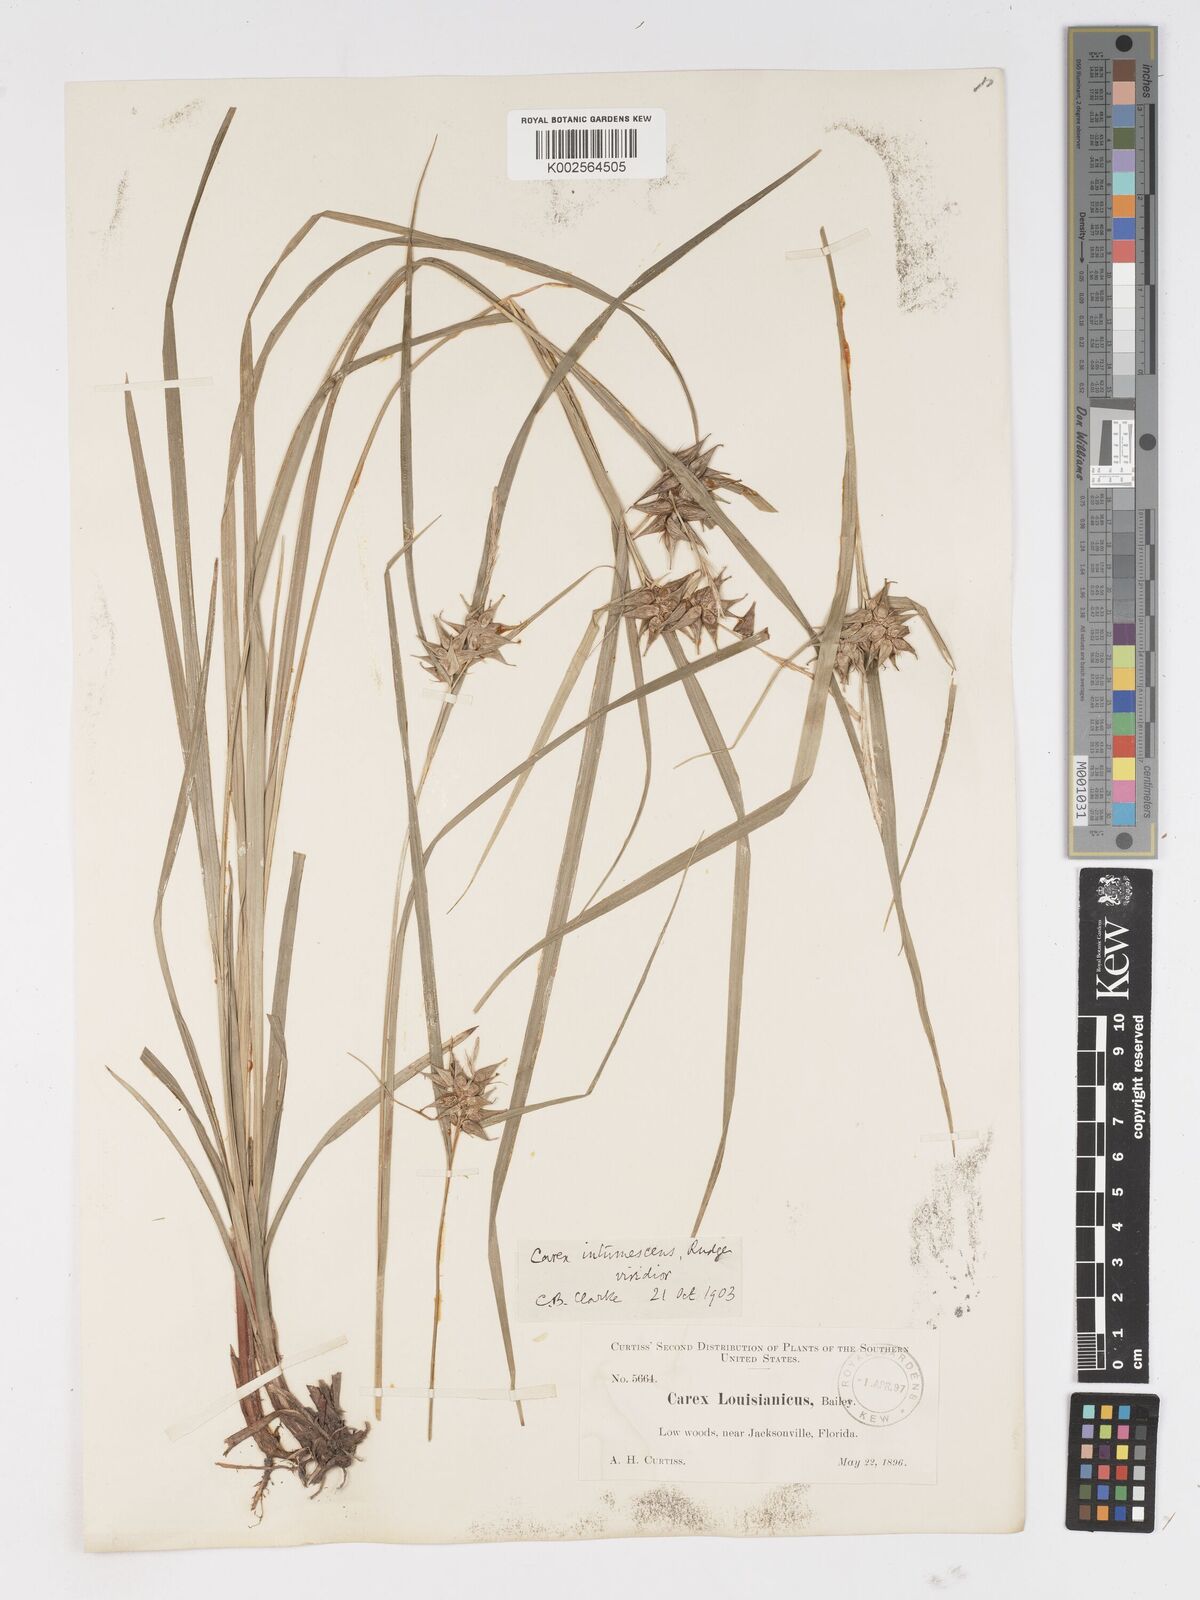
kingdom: Plantae
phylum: Tracheophyta
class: Liliopsida
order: Poales
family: Cyperaceae
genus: Carex
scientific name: Carex louisianica
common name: Louisiana sedge
